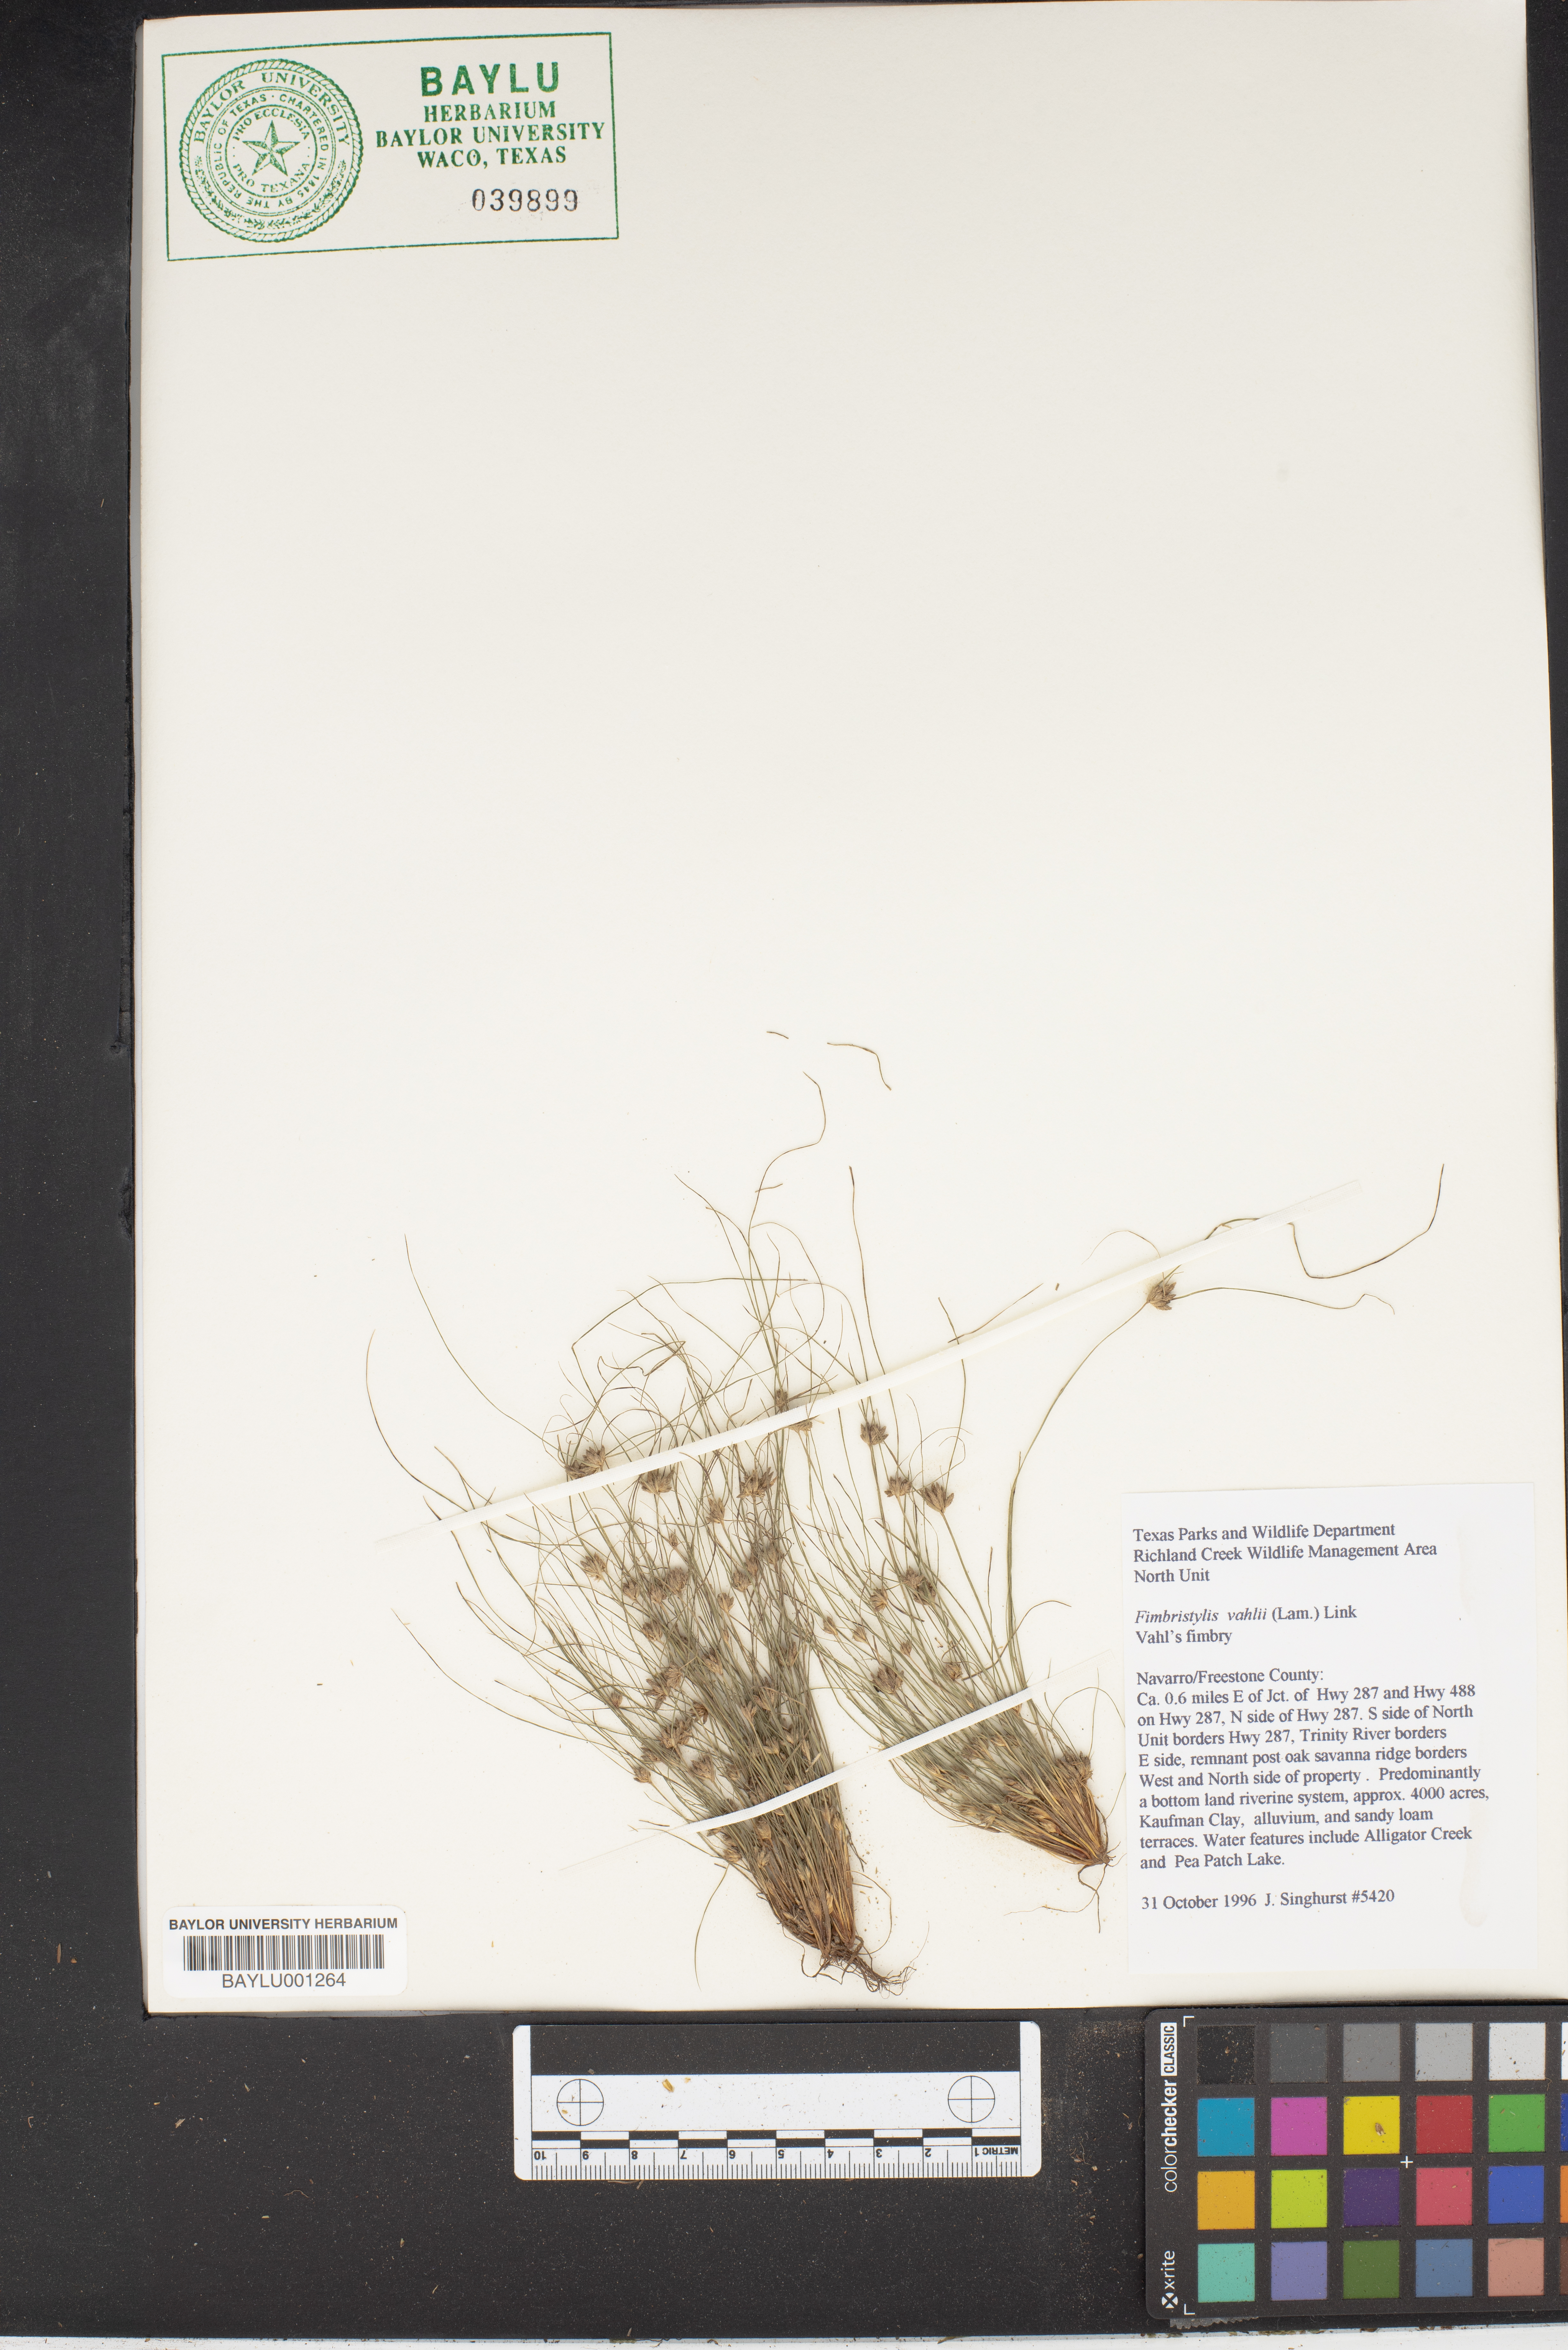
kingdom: Plantae
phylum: Tracheophyta
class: Liliopsida
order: Poales
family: Cyperaceae
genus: Fimbristylis
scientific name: Fimbristylis vahlii
